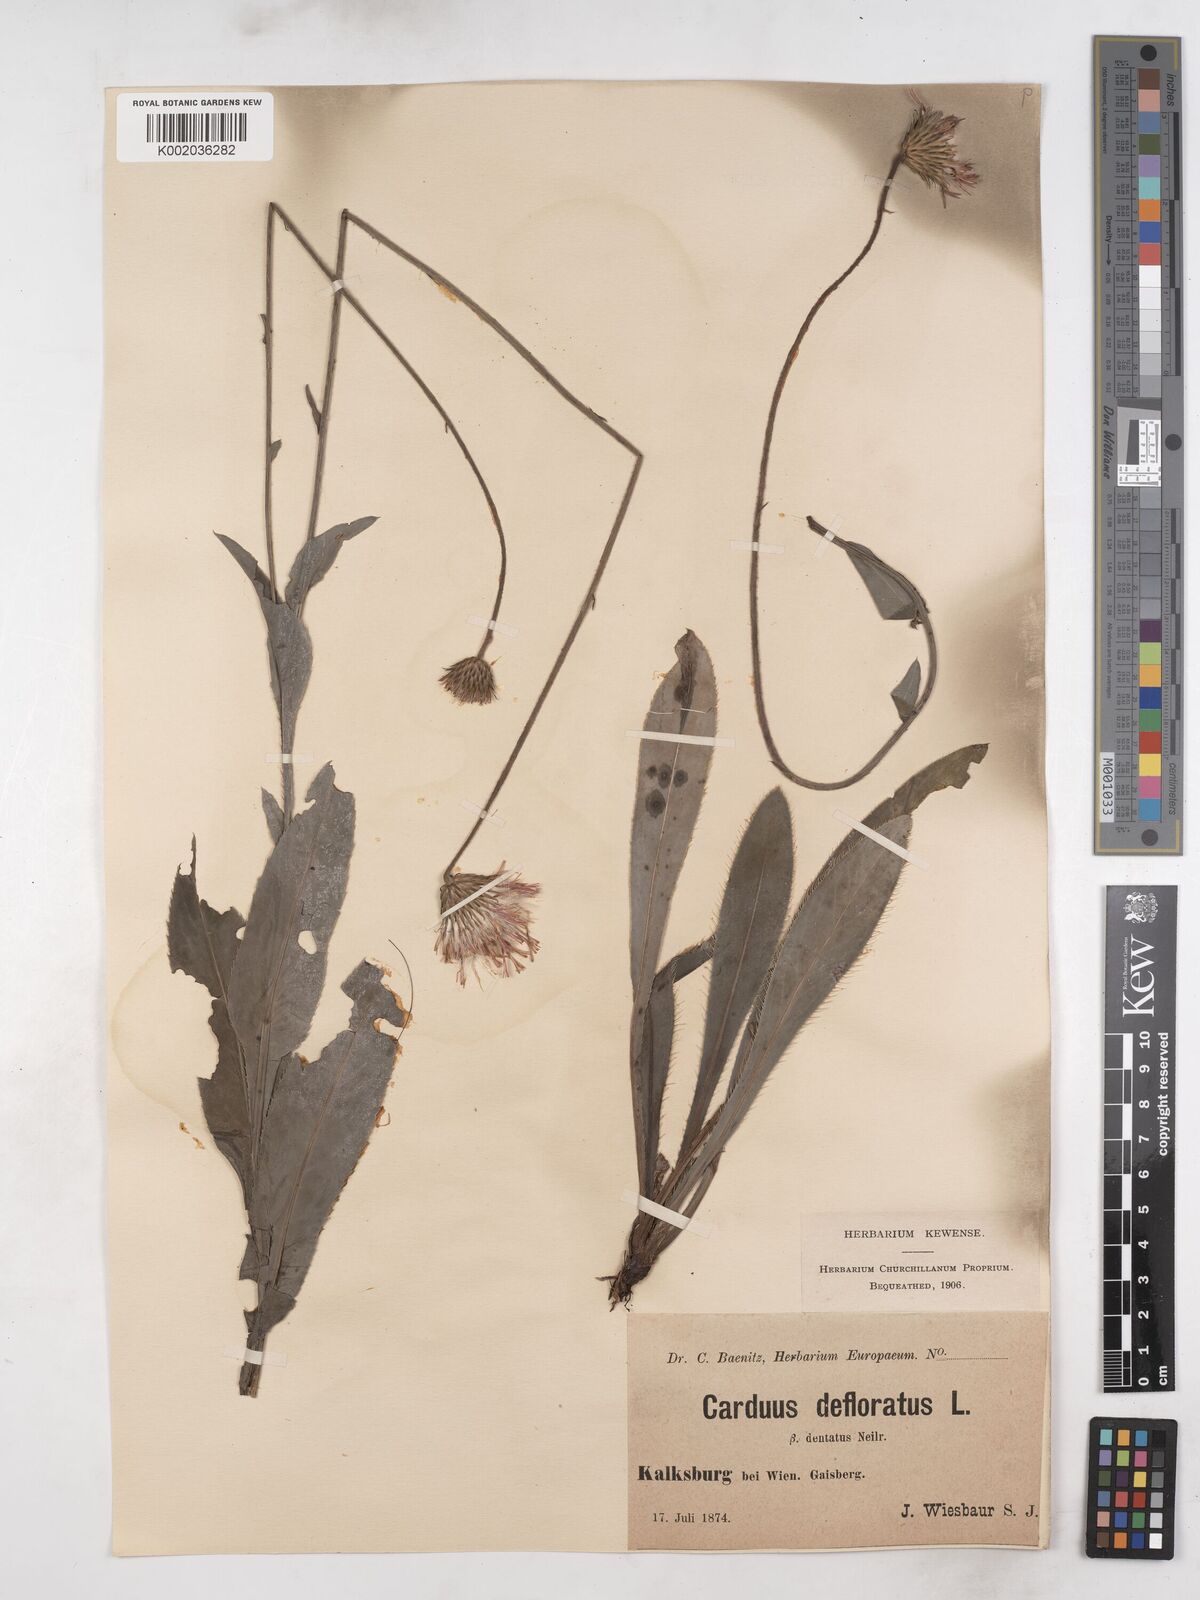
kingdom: Plantae
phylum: Tracheophyta
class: Magnoliopsida
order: Asterales
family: Asteraceae
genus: Carduus
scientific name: Carduus defloratus
